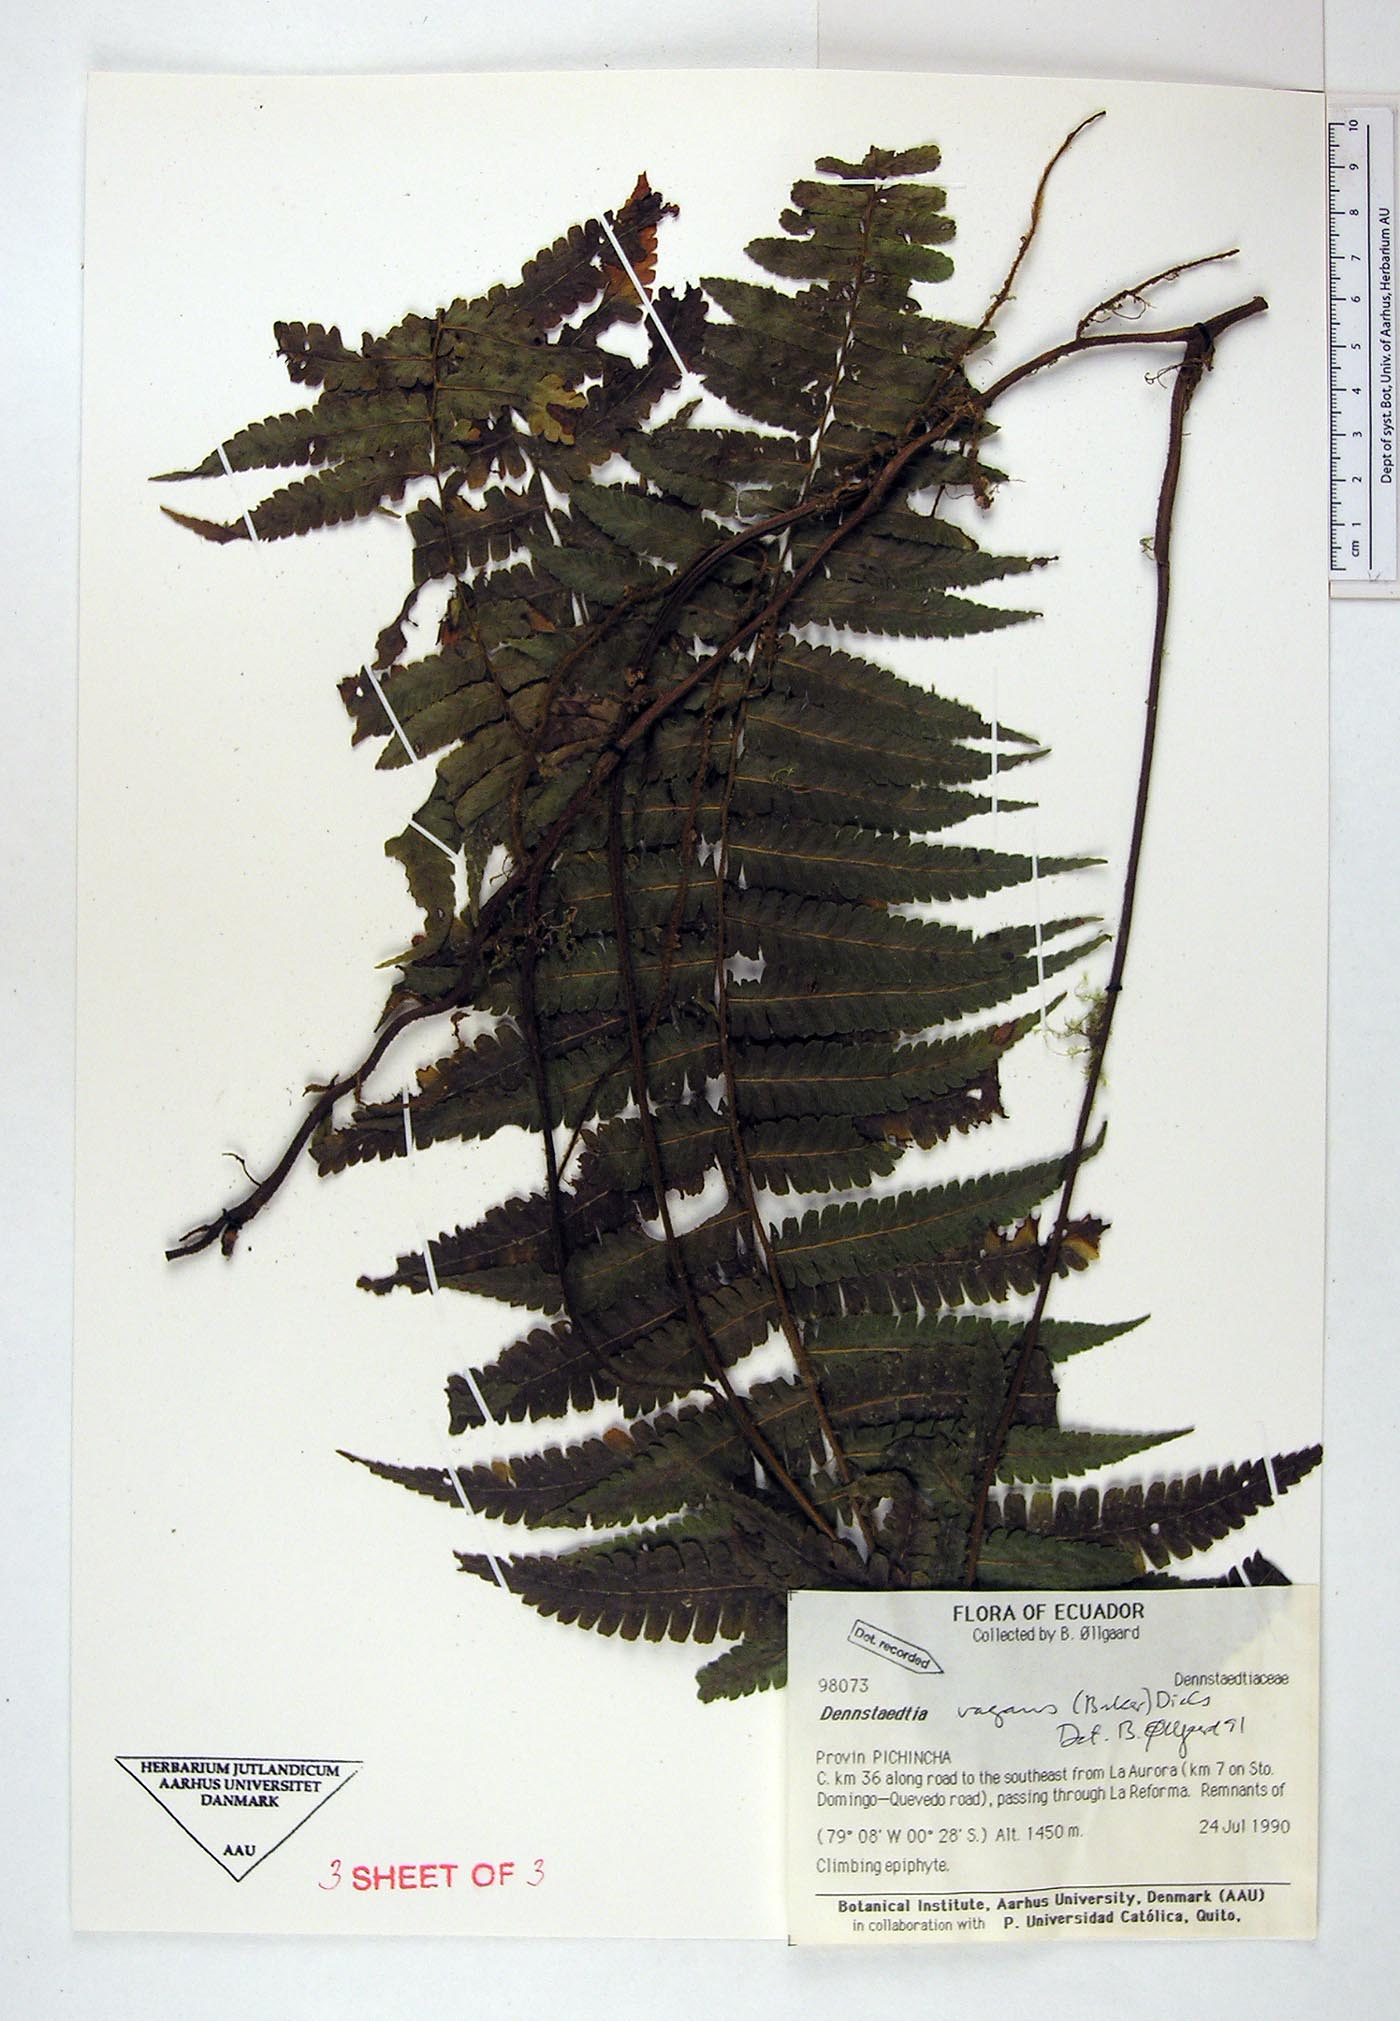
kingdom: Plantae
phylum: Tracheophyta
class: Polypodiopsida
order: Polypodiales
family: Dennstaedtiaceae
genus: Dennstaedtia
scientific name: Dennstaedtia vagans
